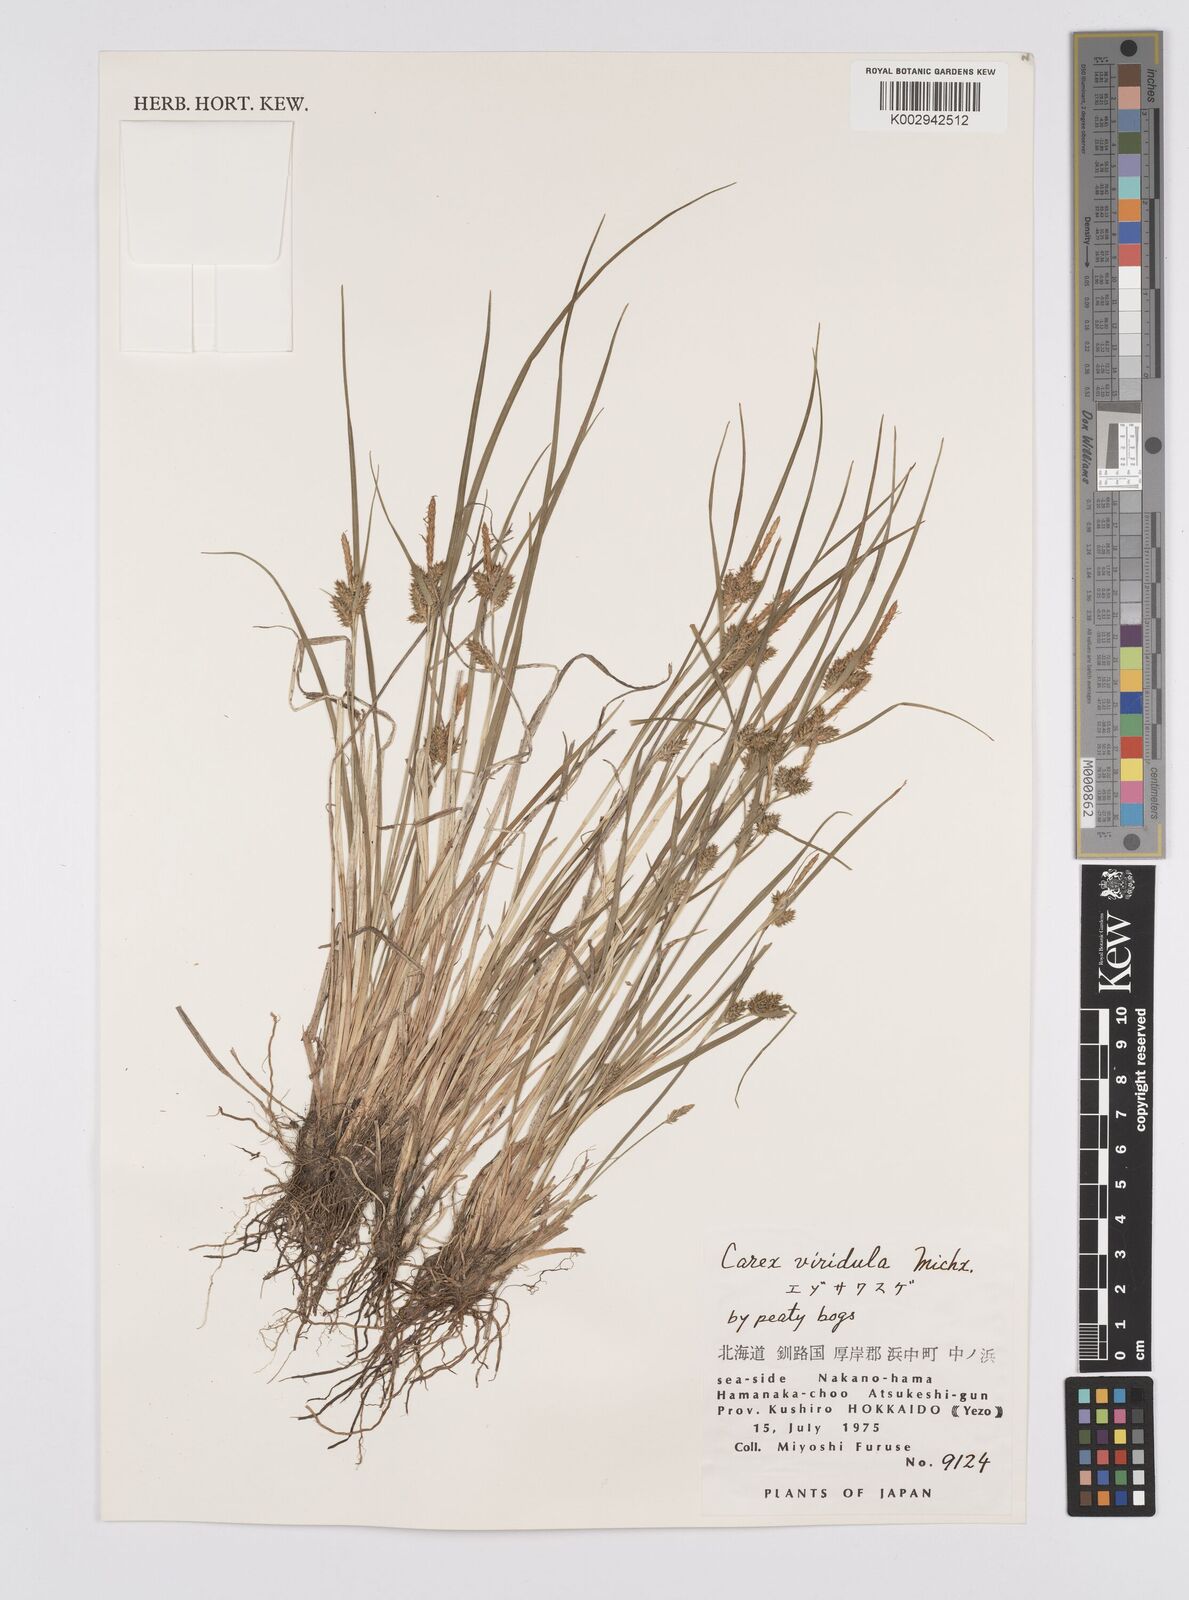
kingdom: Plantae
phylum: Tracheophyta
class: Liliopsida
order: Poales
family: Cyperaceae
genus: Carex
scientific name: Carex oederi
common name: Common & small-fruited yellow-sedge
